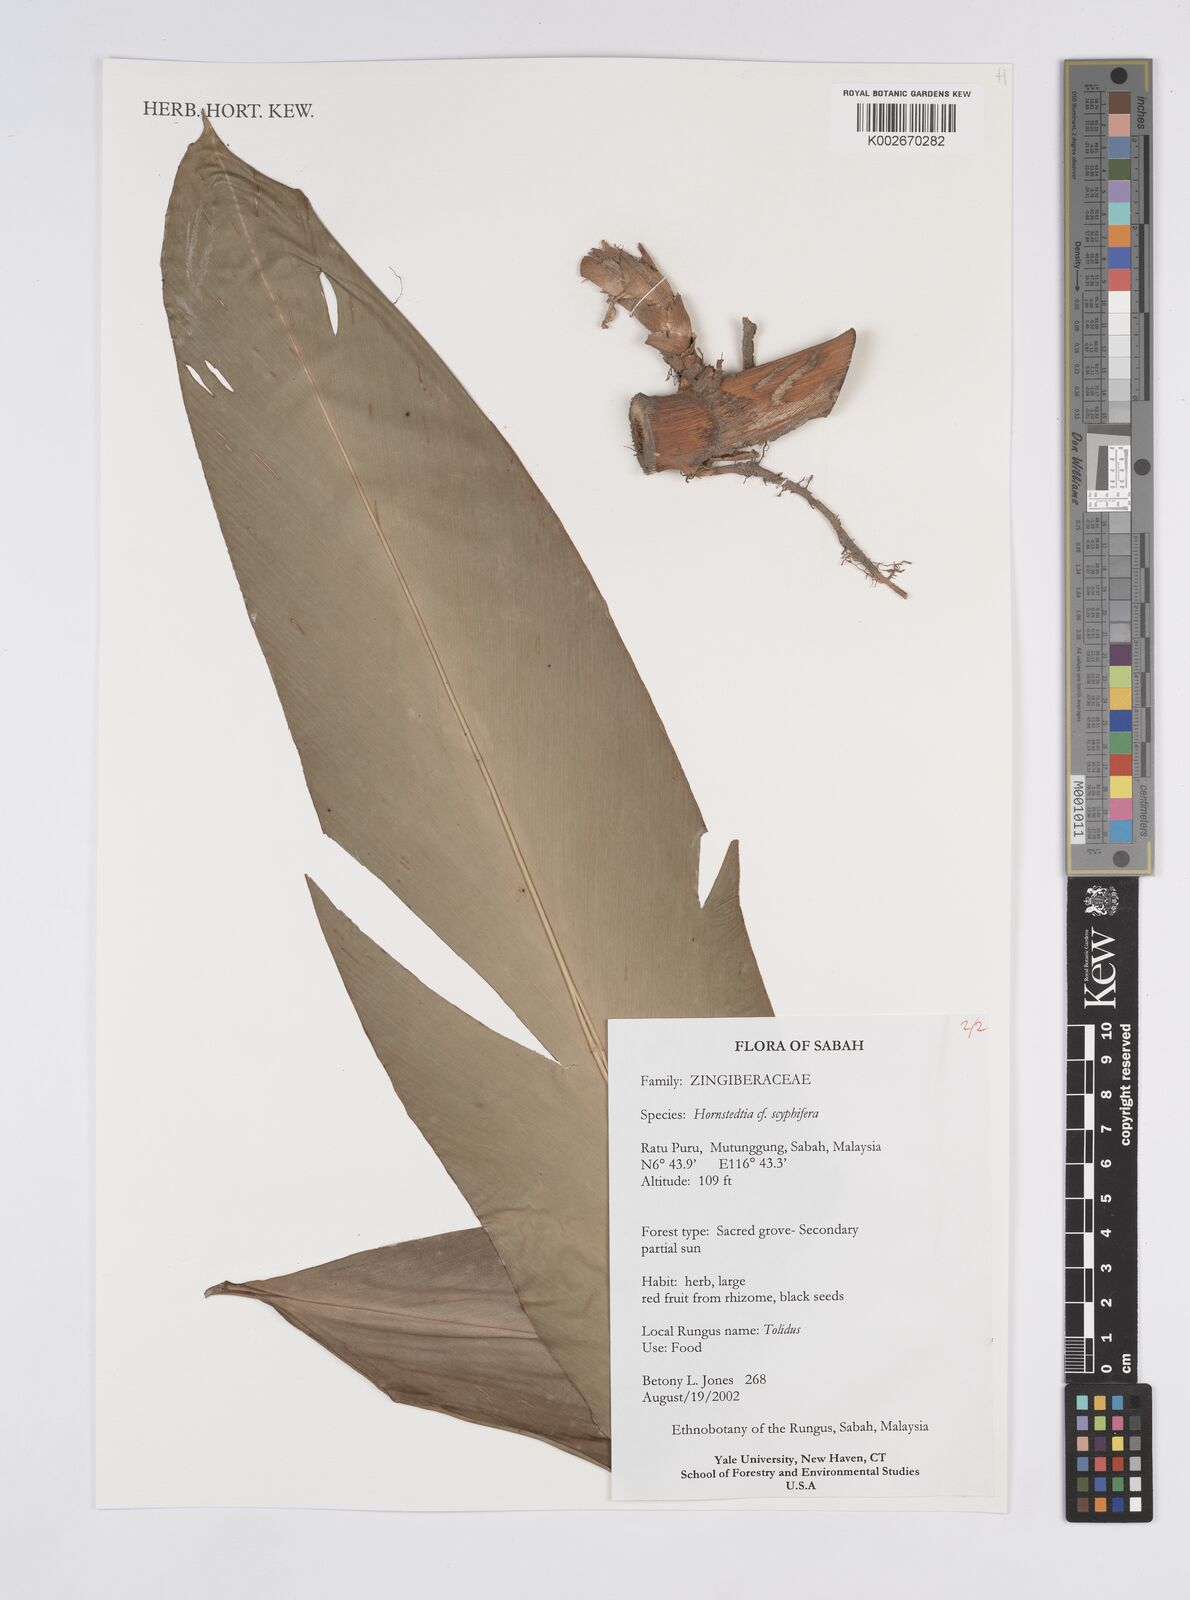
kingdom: Plantae
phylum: Tracheophyta
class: Liliopsida
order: Zingiberales
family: Zingiberaceae
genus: Hornstedtia
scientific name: Hornstedtia
